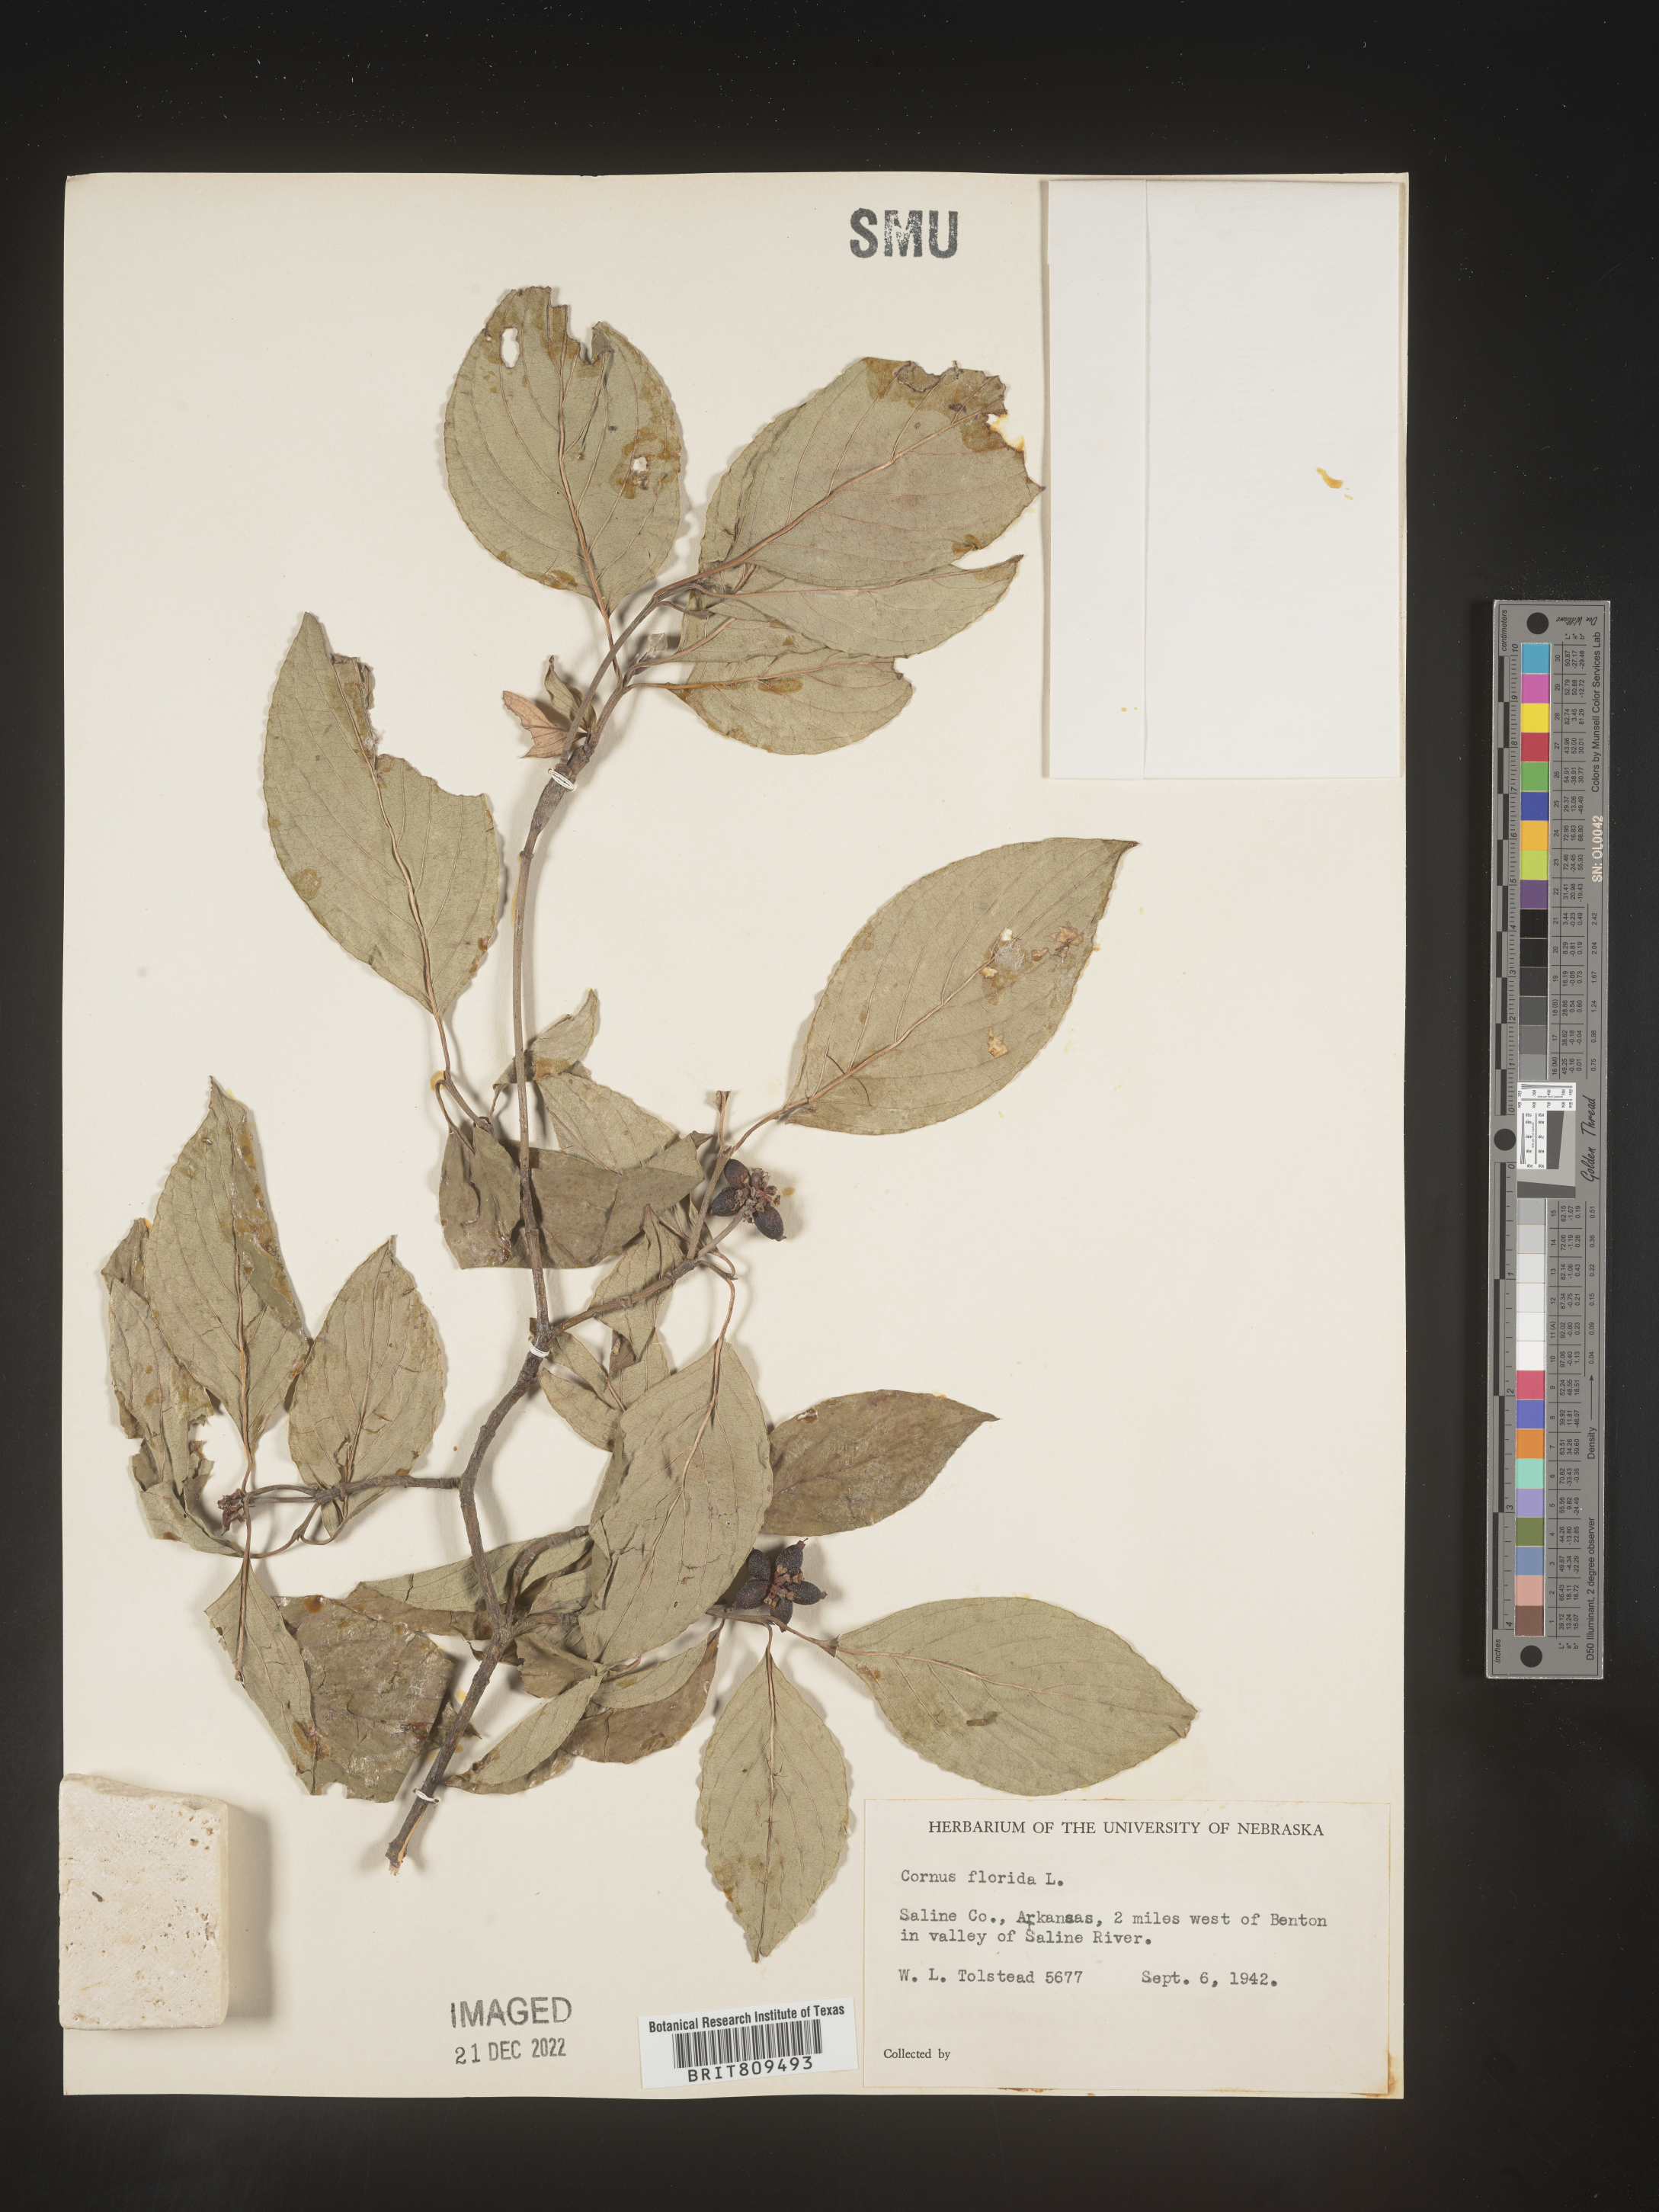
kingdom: Plantae
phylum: Tracheophyta
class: Magnoliopsida
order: Cornales
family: Cornaceae
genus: Cornus
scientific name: Cornus florida
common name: Flowering dogwood
